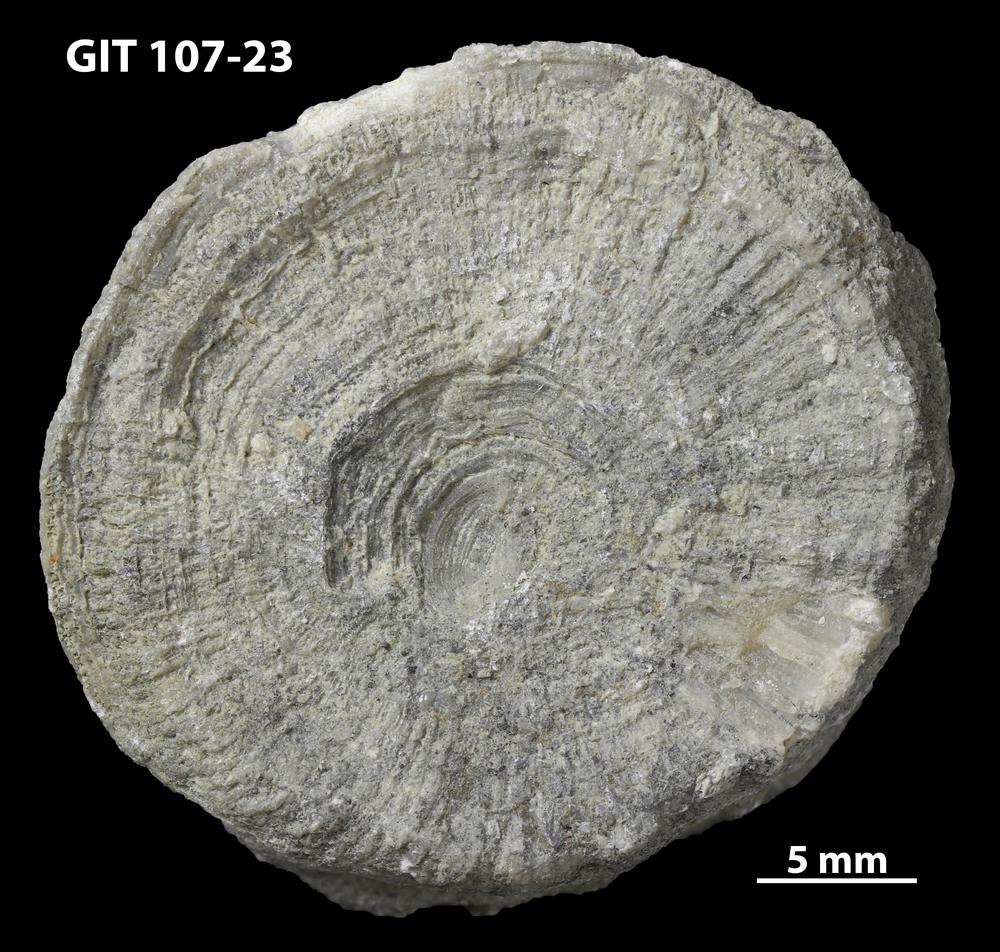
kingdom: Animalia
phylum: Bryozoa
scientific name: Bryozoa
